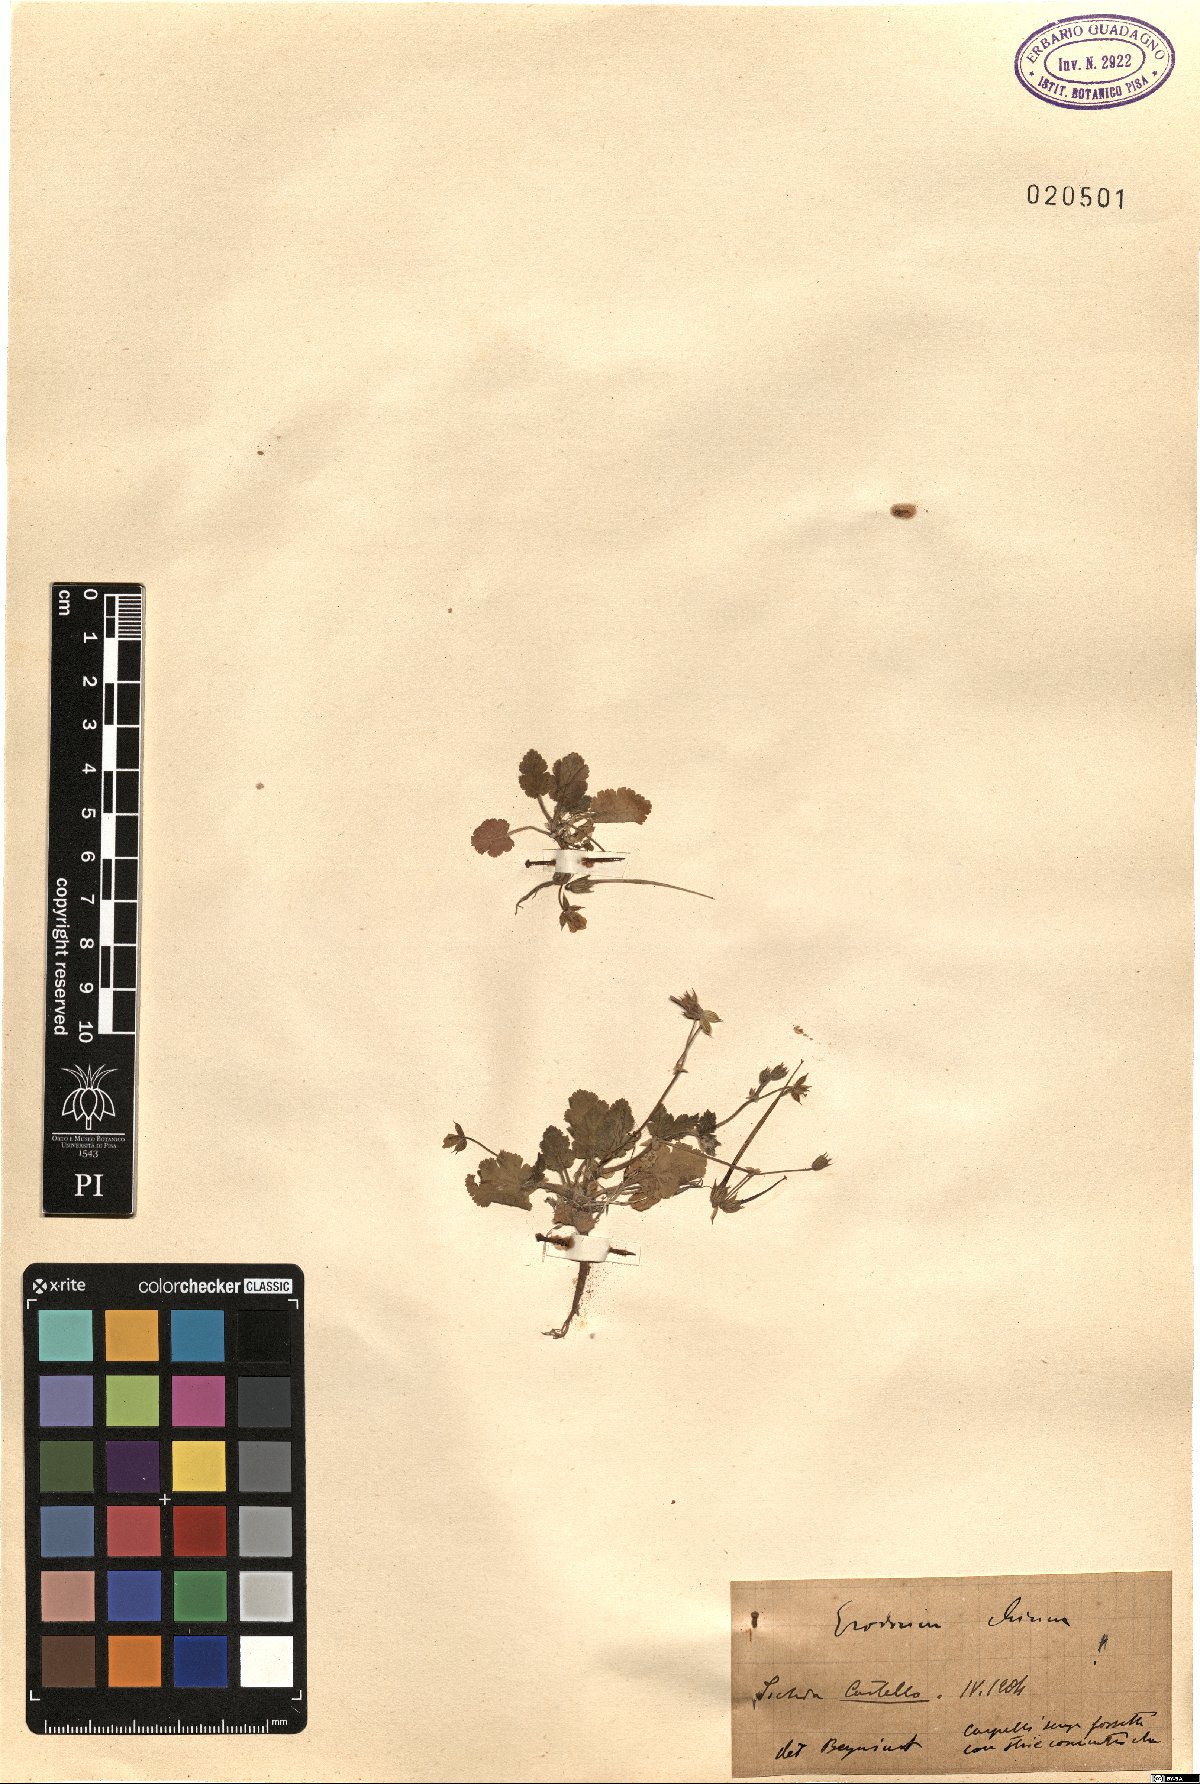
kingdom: Plantae
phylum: Tracheophyta
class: Magnoliopsida
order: Geraniales
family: Geraniaceae
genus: Erodium
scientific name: Erodium chium
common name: Three-lobed stork's-bill
